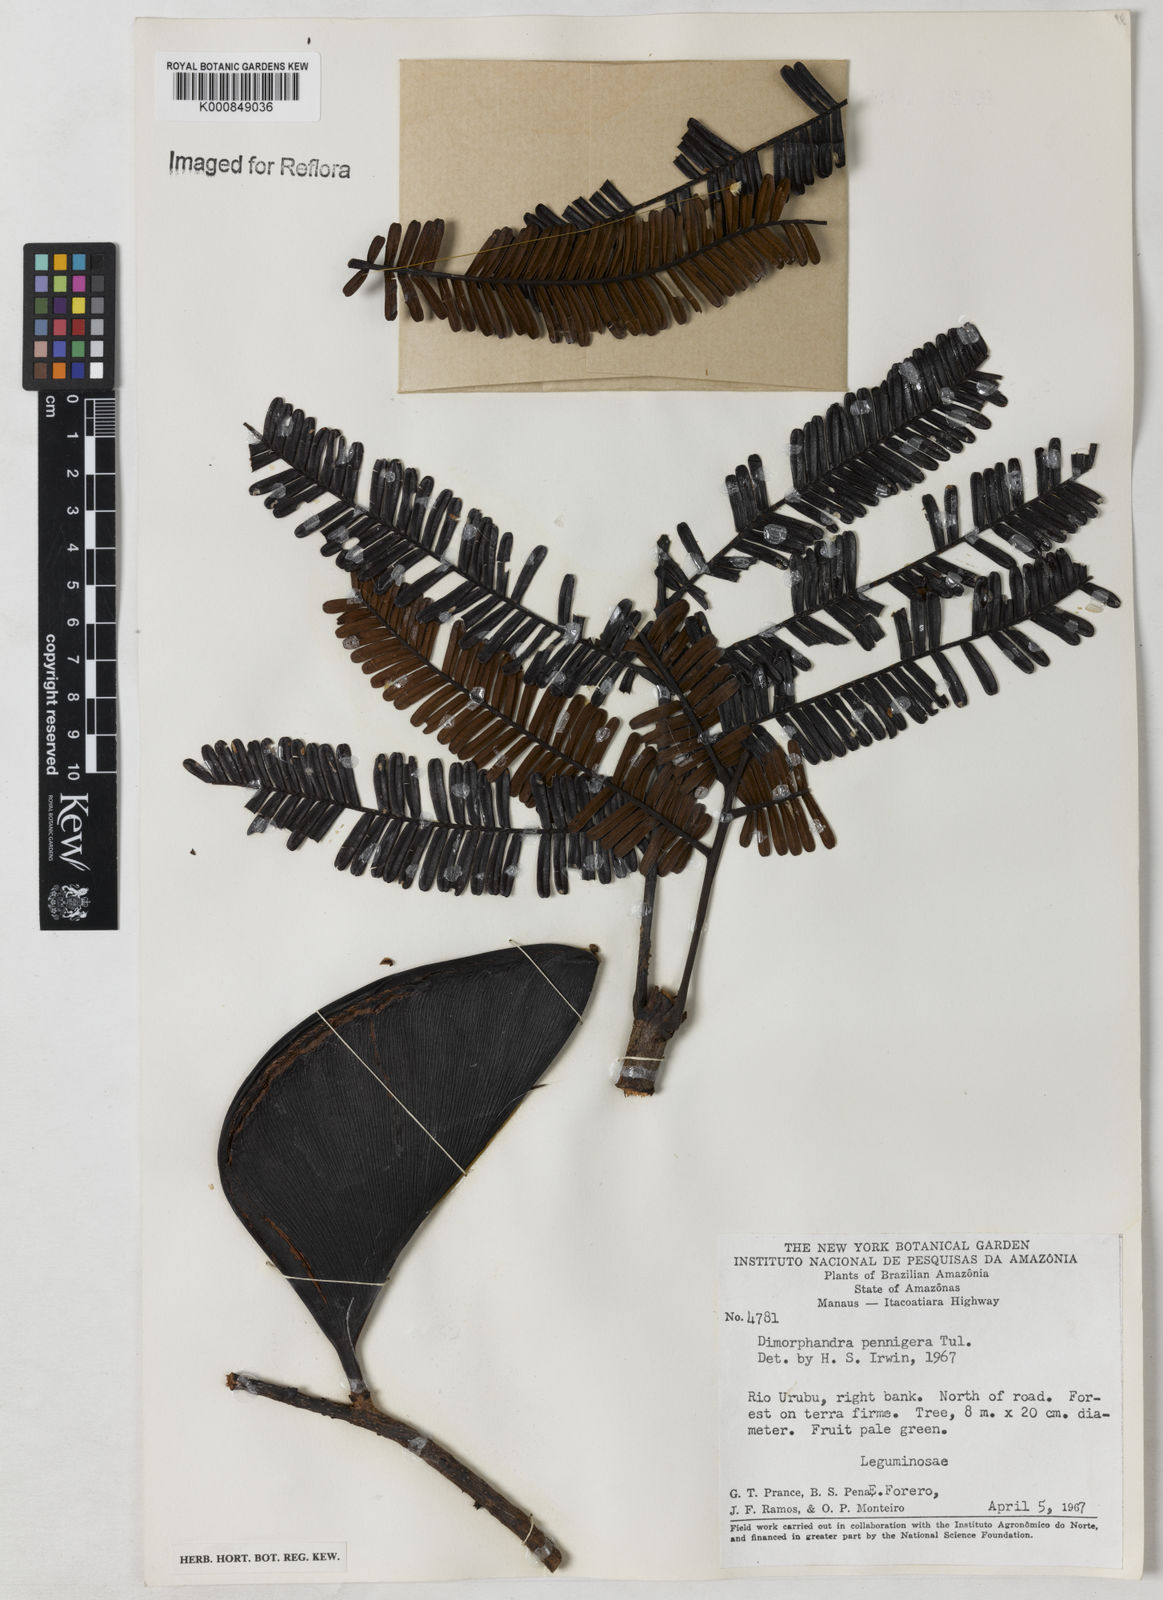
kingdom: Plantae
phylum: Tracheophyta
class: Magnoliopsida
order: Fabales
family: Fabaceae
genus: Dimorphandra
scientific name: Dimorphandra pennigera
